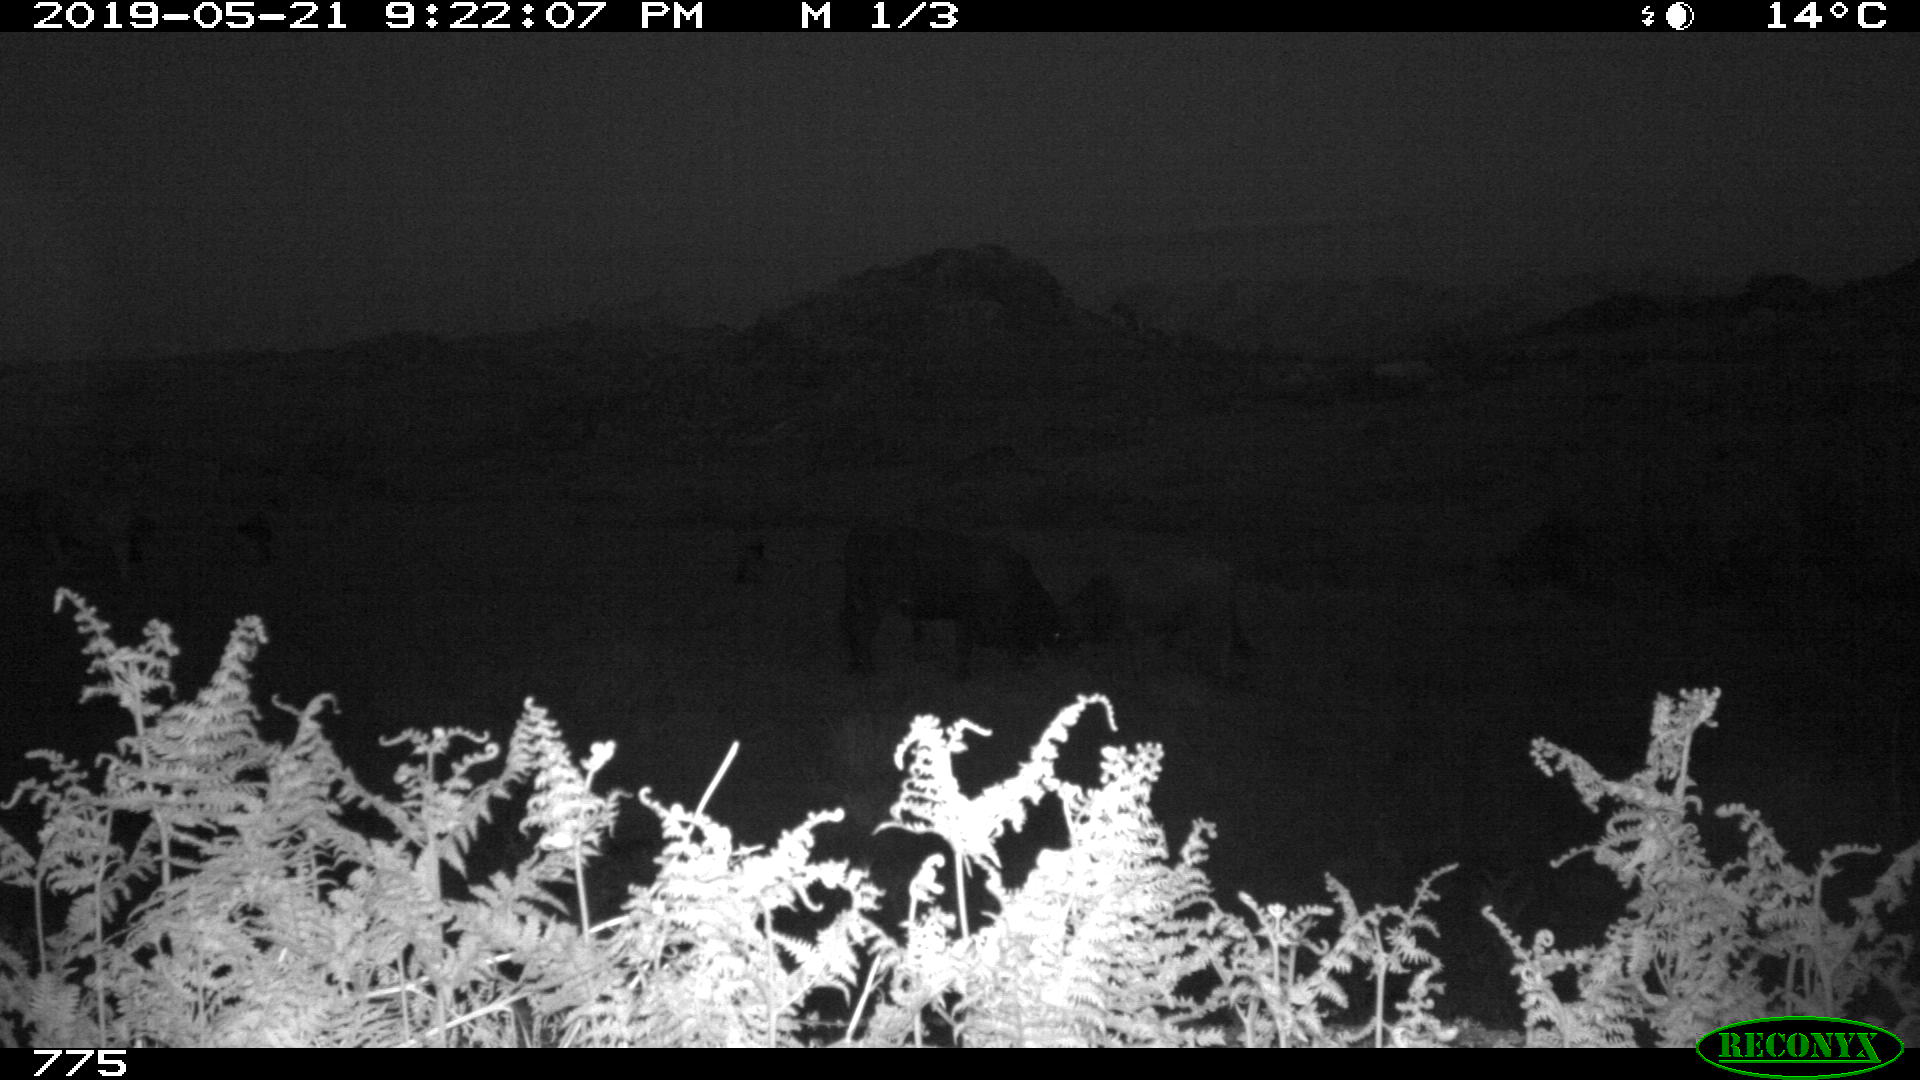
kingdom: Animalia
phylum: Chordata
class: Mammalia
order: Artiodactyla
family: Bovidae
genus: Bos
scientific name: Bos taurus
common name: Domesticated cattle
